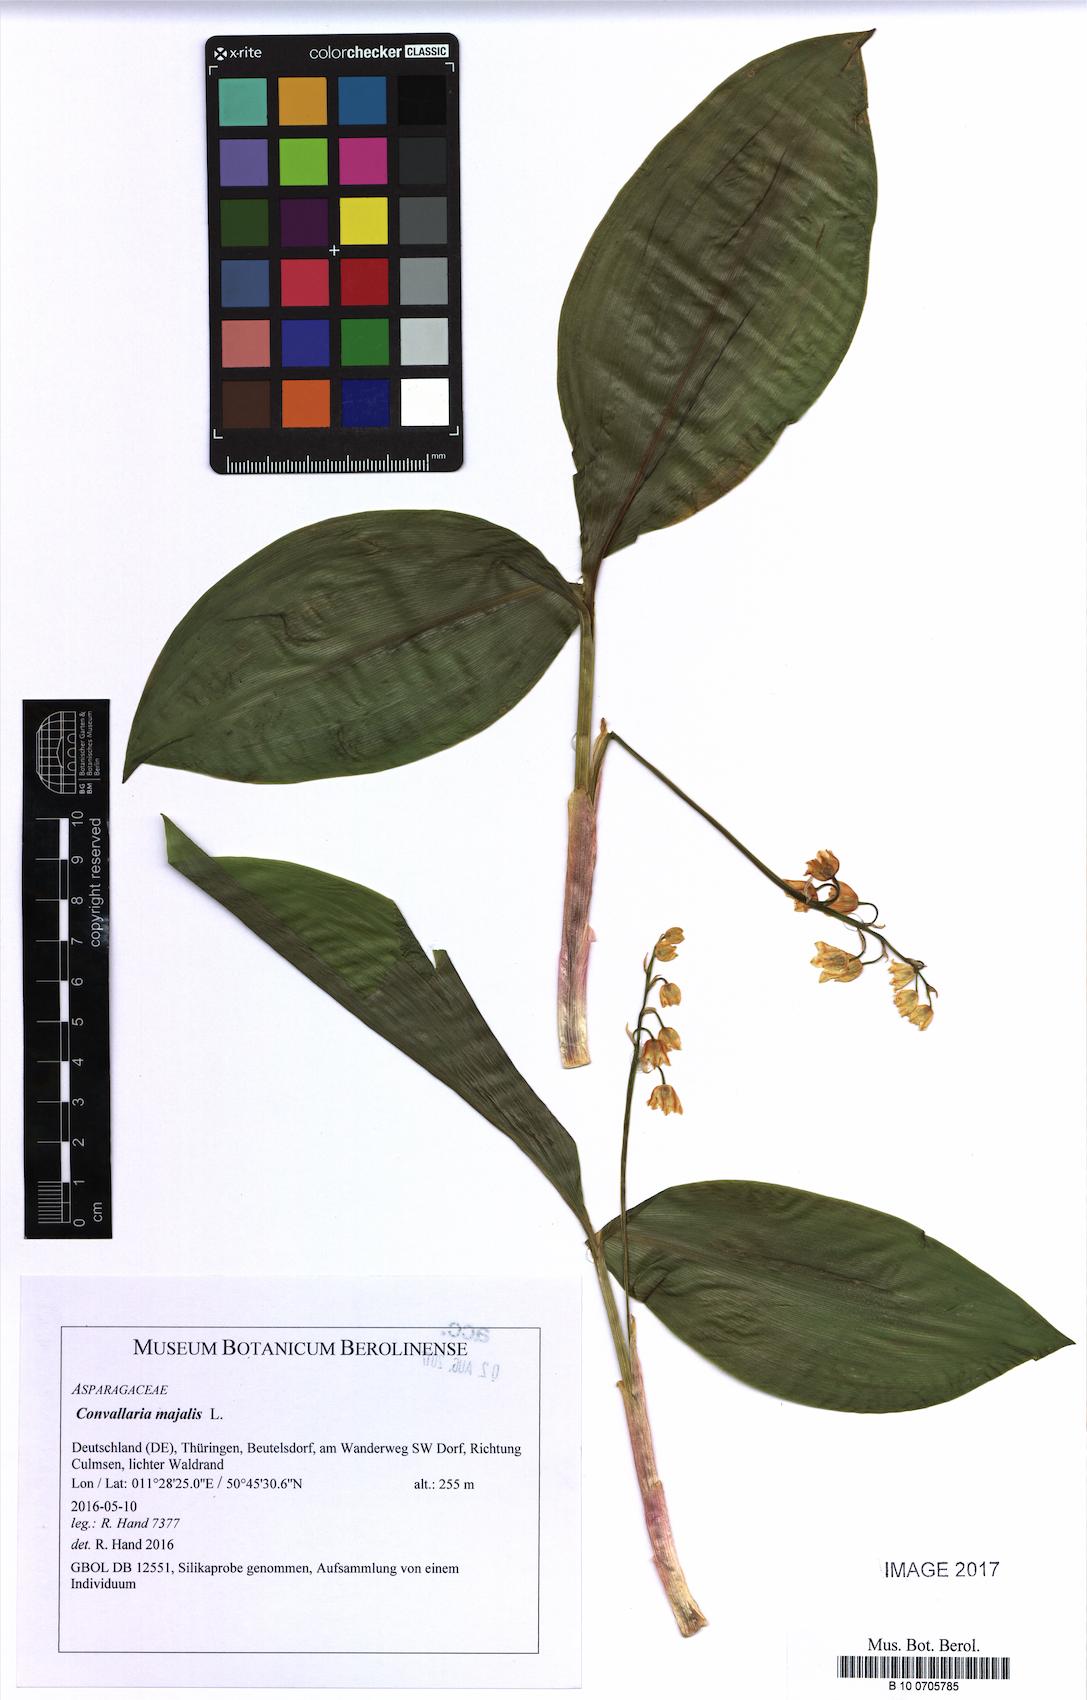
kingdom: Plantae
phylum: Tracheophyta
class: Liliopsida
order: Asparagales
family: Asparagaceae
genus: Convallaria
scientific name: Convallaria majalis
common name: Lily-of-the-valley
